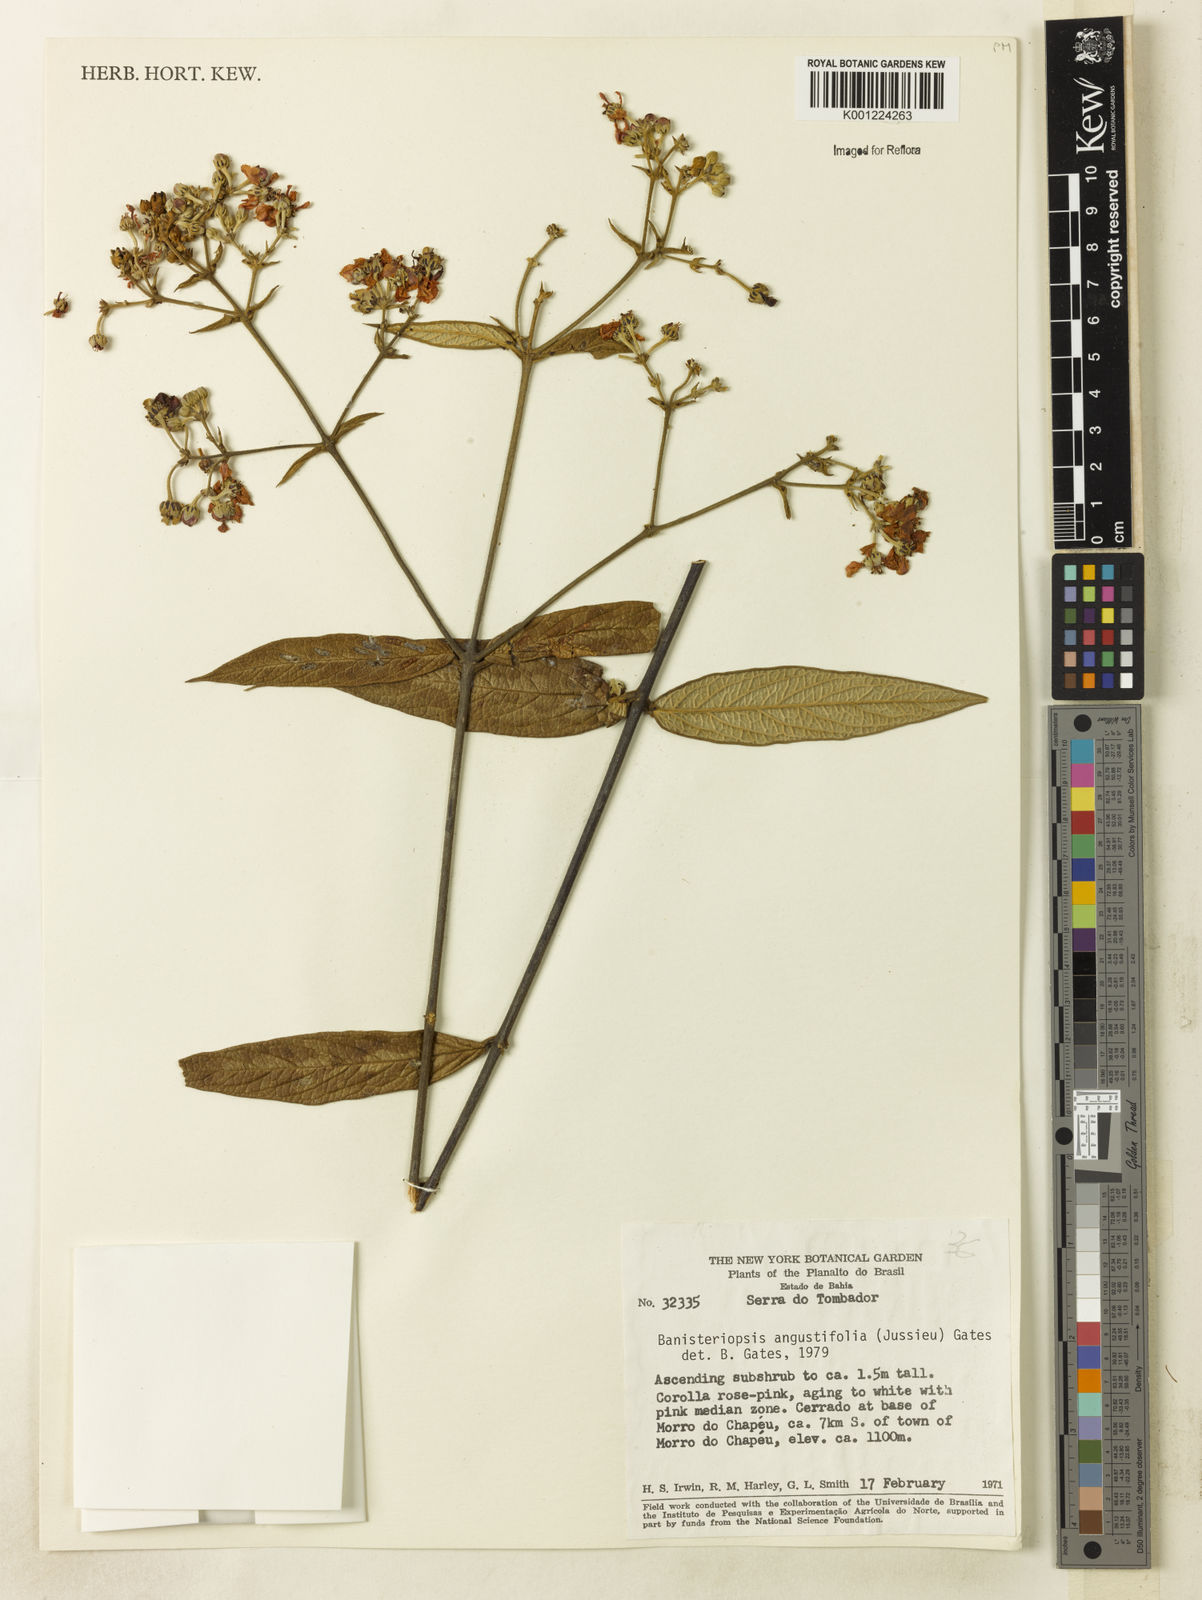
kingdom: Plantae
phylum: Tracheophyta
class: Magnoliopsida
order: Malpighiales
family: Malpighiaceae
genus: Banisteriopsis
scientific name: Banisteriopsis angustifolia
